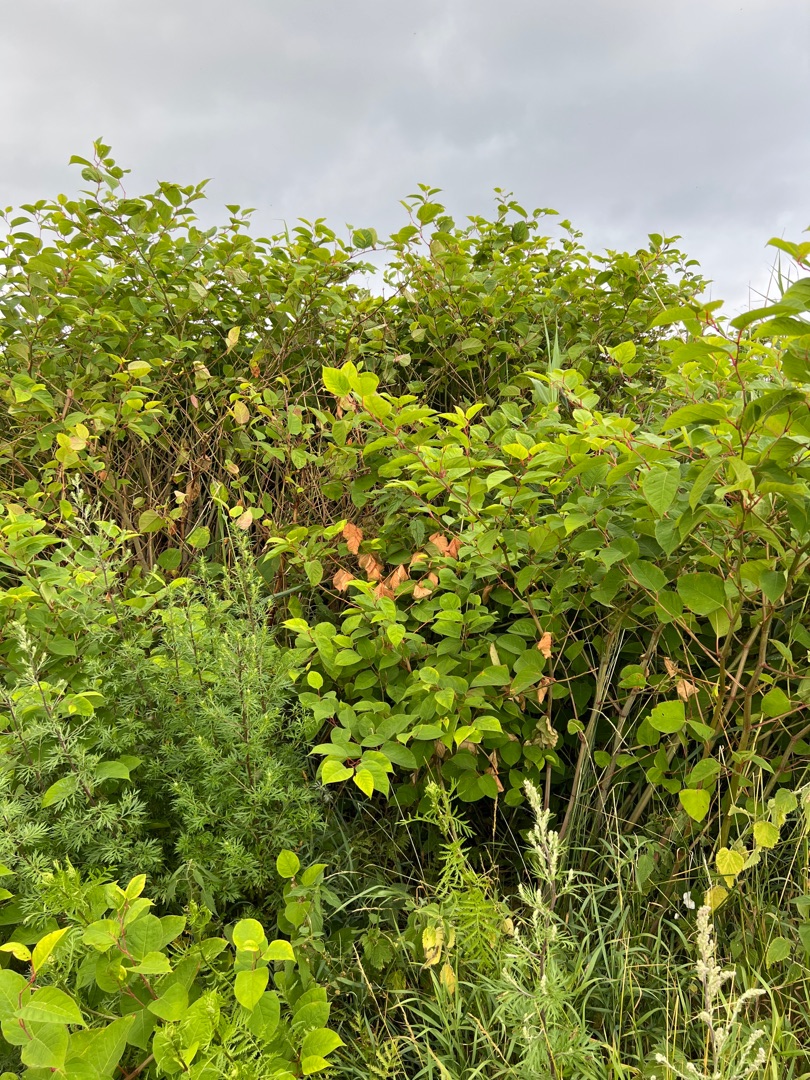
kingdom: Plantae
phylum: Tracheophyta
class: Magnoliopsida
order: Caryophyllales
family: Polygonaceae
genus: Reynoutria
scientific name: Reynoutria japonica
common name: Japan-pileurt
